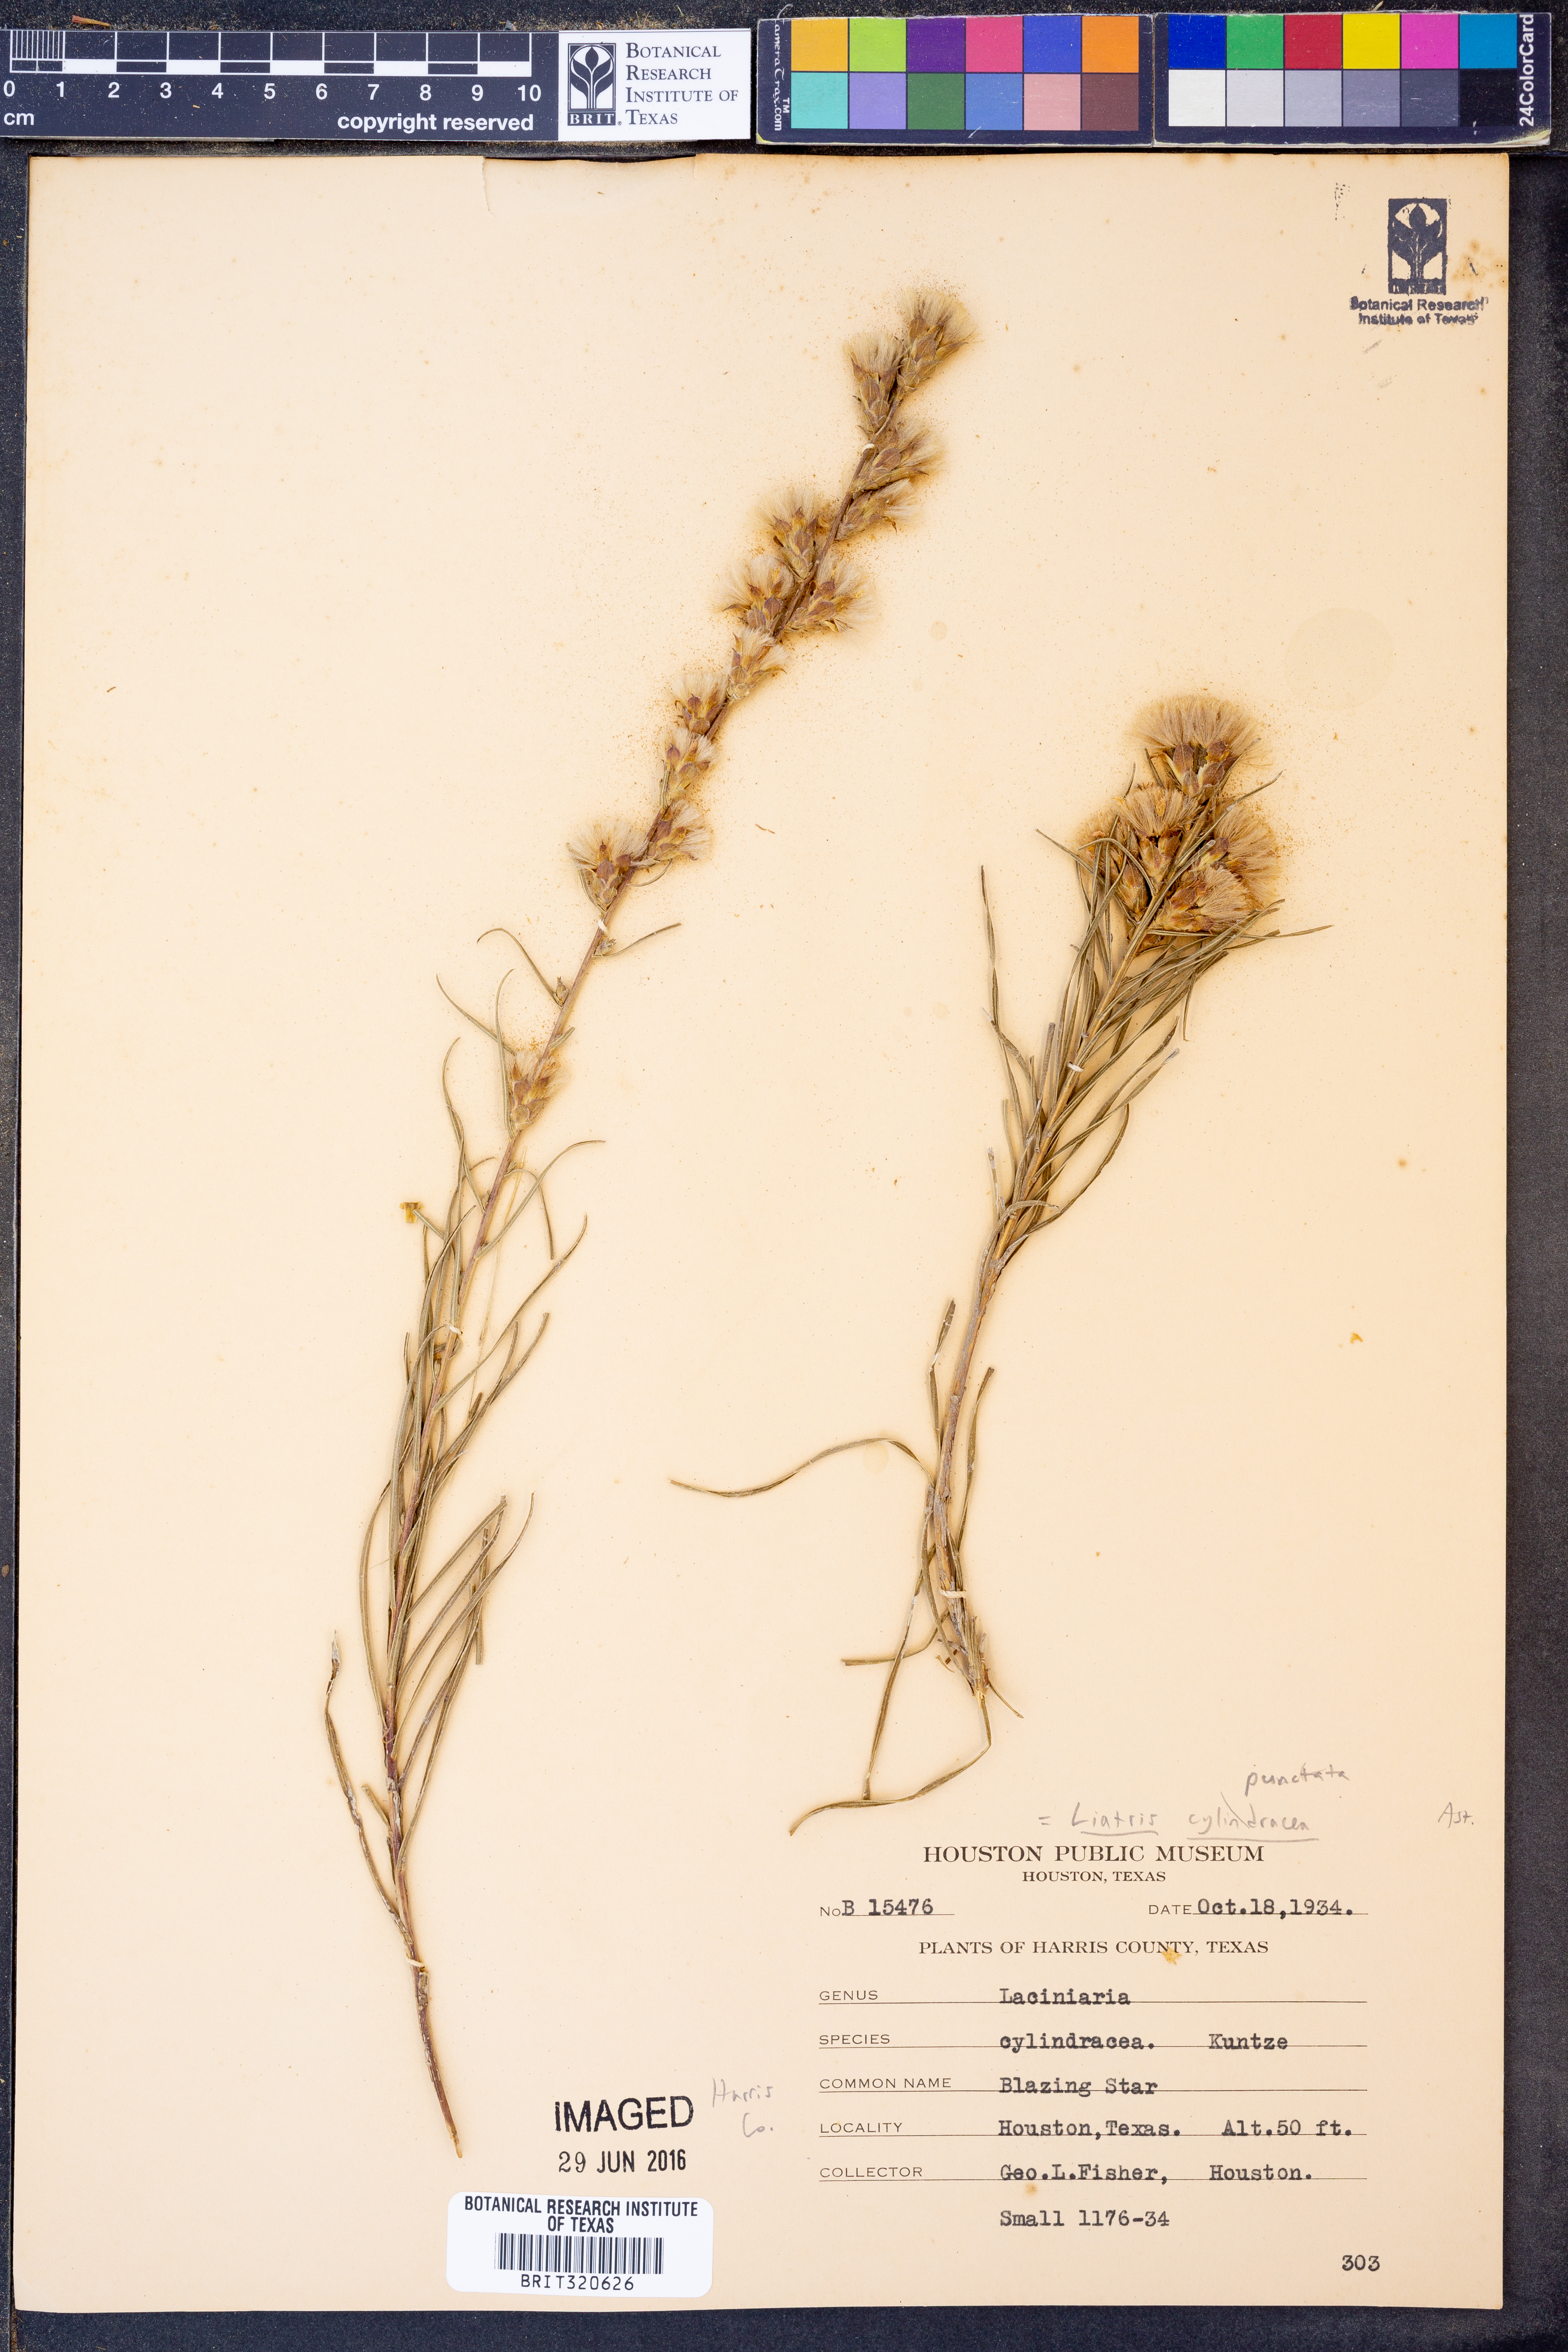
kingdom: Plantae
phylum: Tracheophyta
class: Magnoliopsida
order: Asterales
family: Asteraceae
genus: Liatris
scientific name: Liatris punctata
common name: Dotted gayfeather
